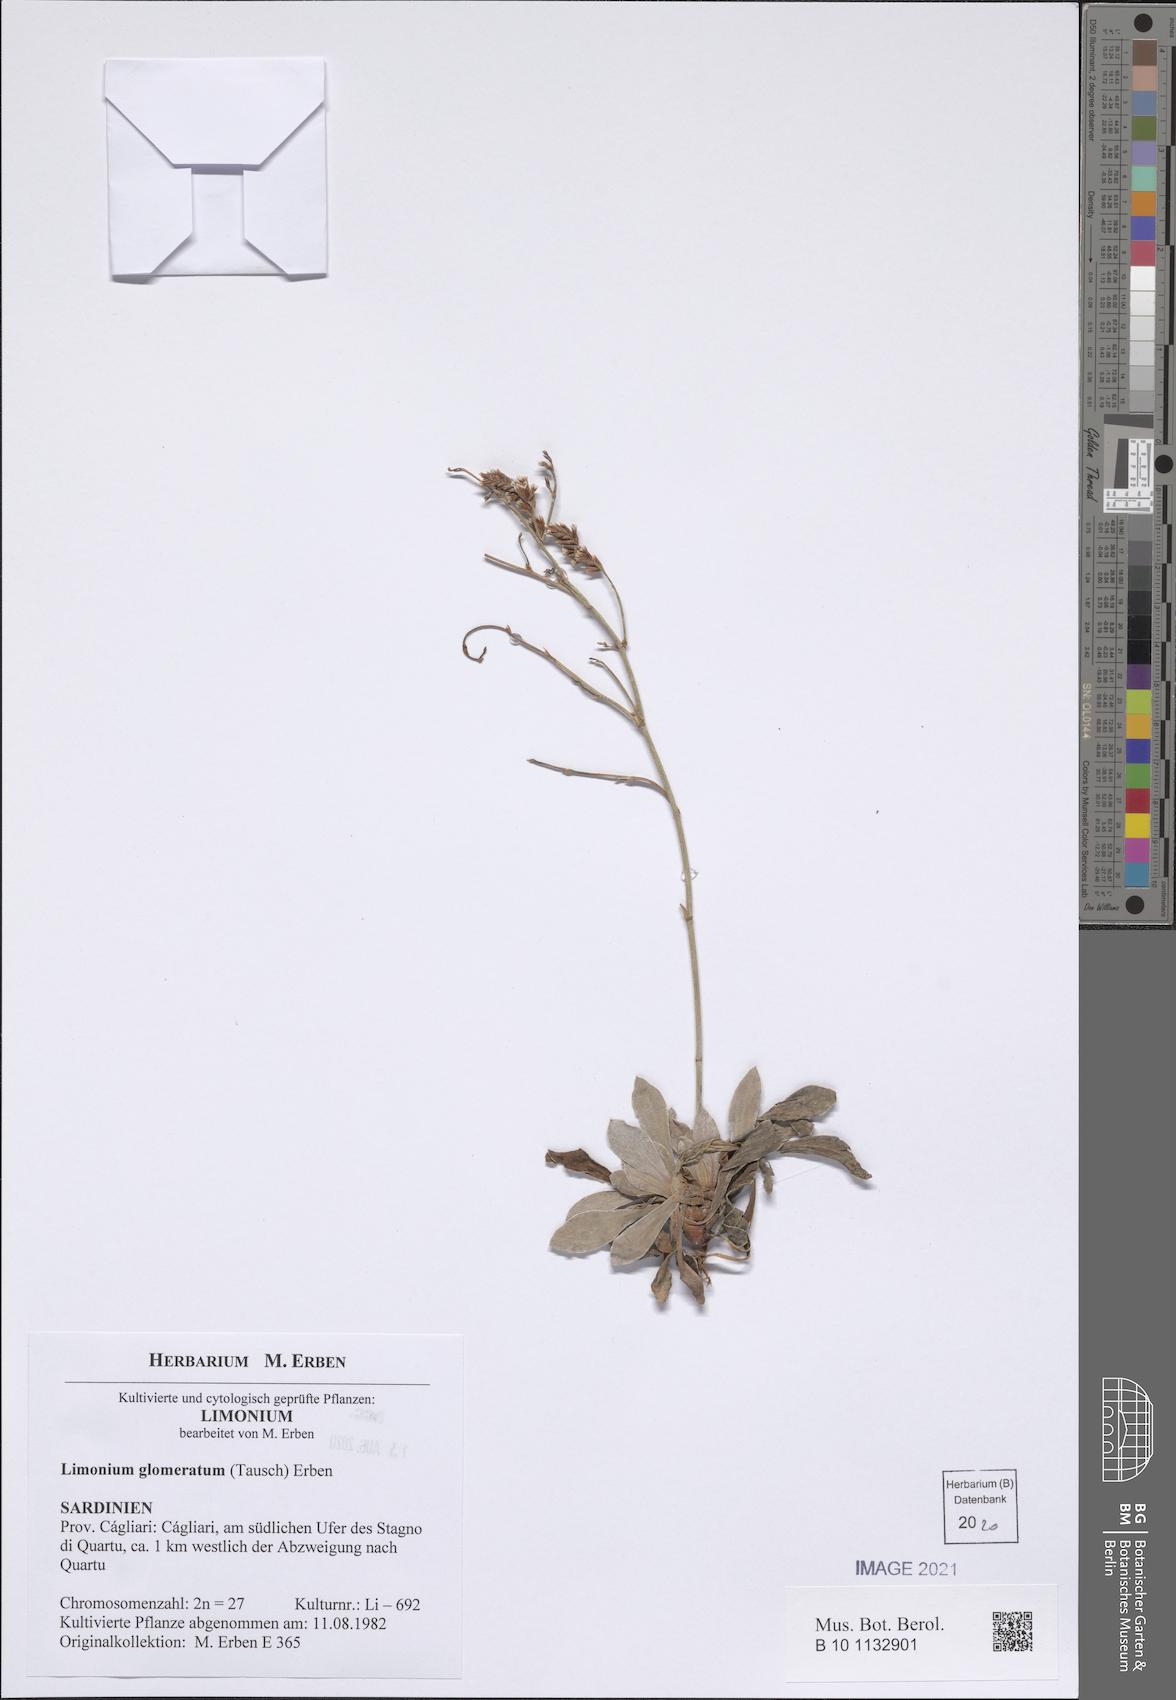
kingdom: Plantae
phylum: Tracheophyta
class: Magnoliopsida
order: Caryophyllales
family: Plumbaginaceae
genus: Limonium
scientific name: Limonium glomeratum
